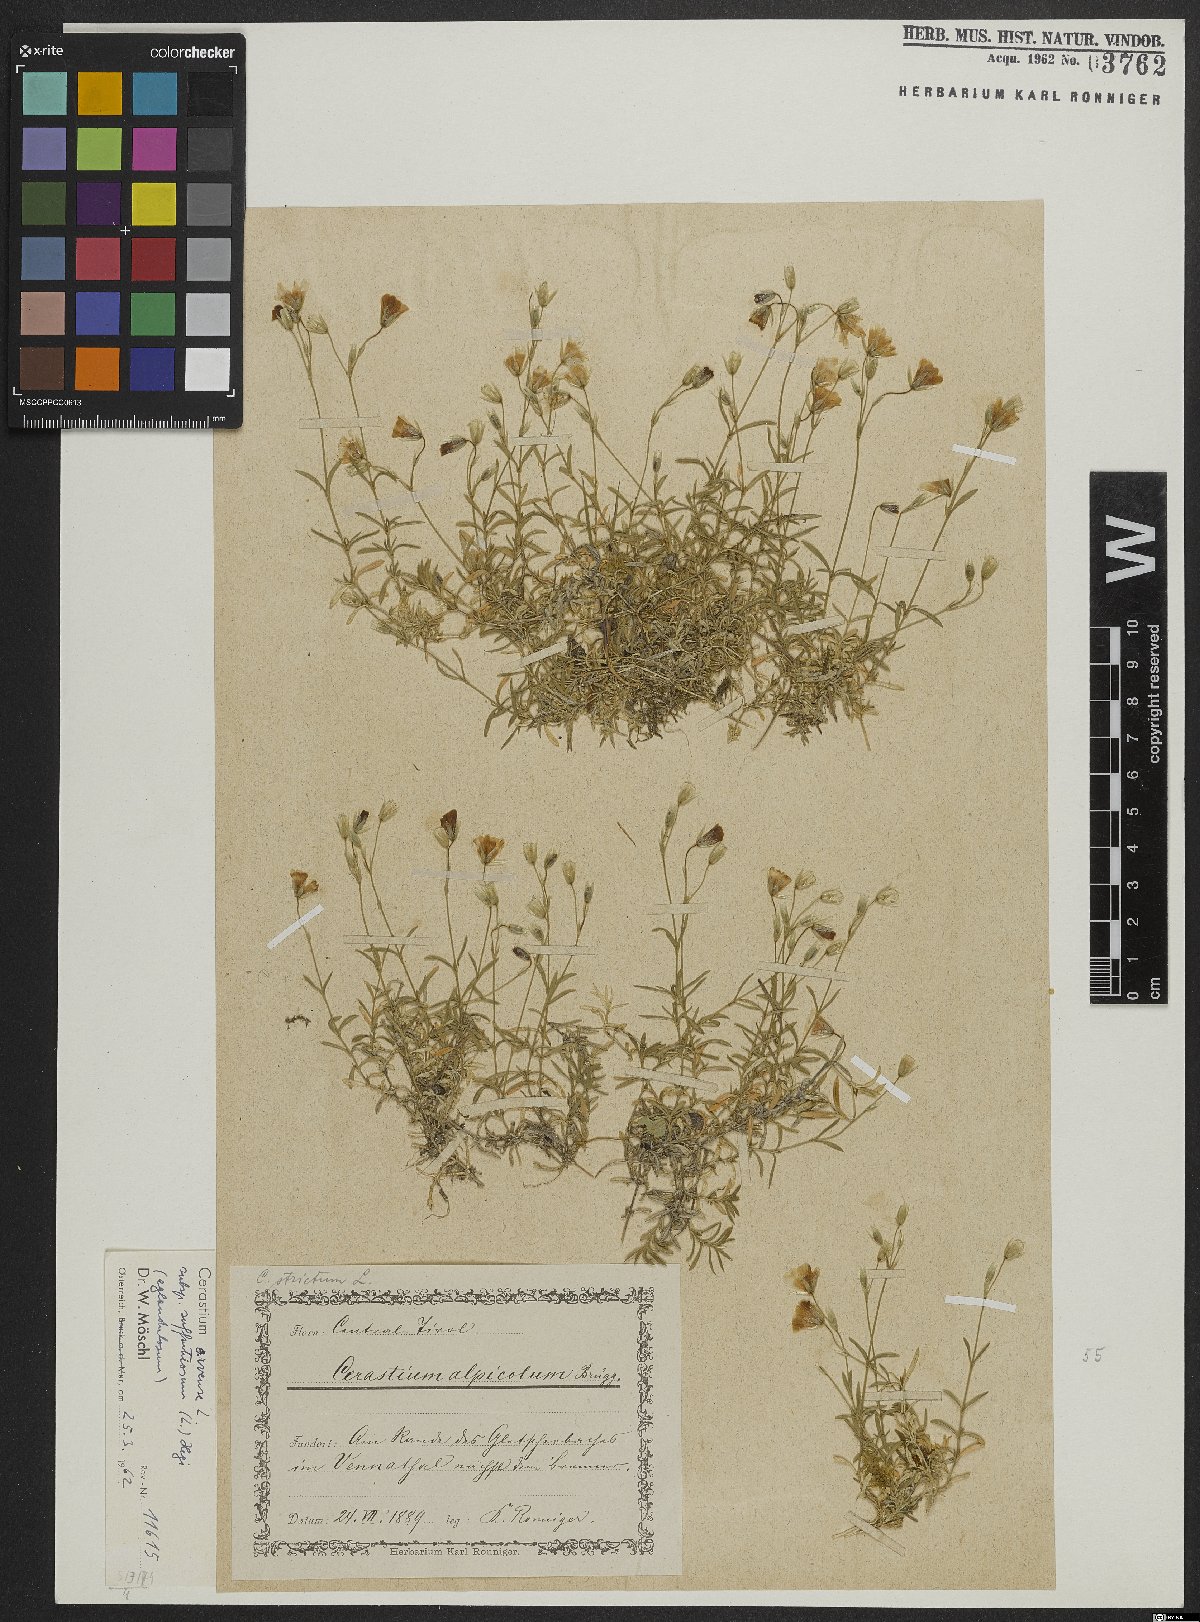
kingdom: Plantae
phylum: Tracheophyta
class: Magnoliopsida
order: Caryophyllales
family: Caryophyllaceae
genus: Cerastium
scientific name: Cerastium arvense
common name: Field mouse-ear
